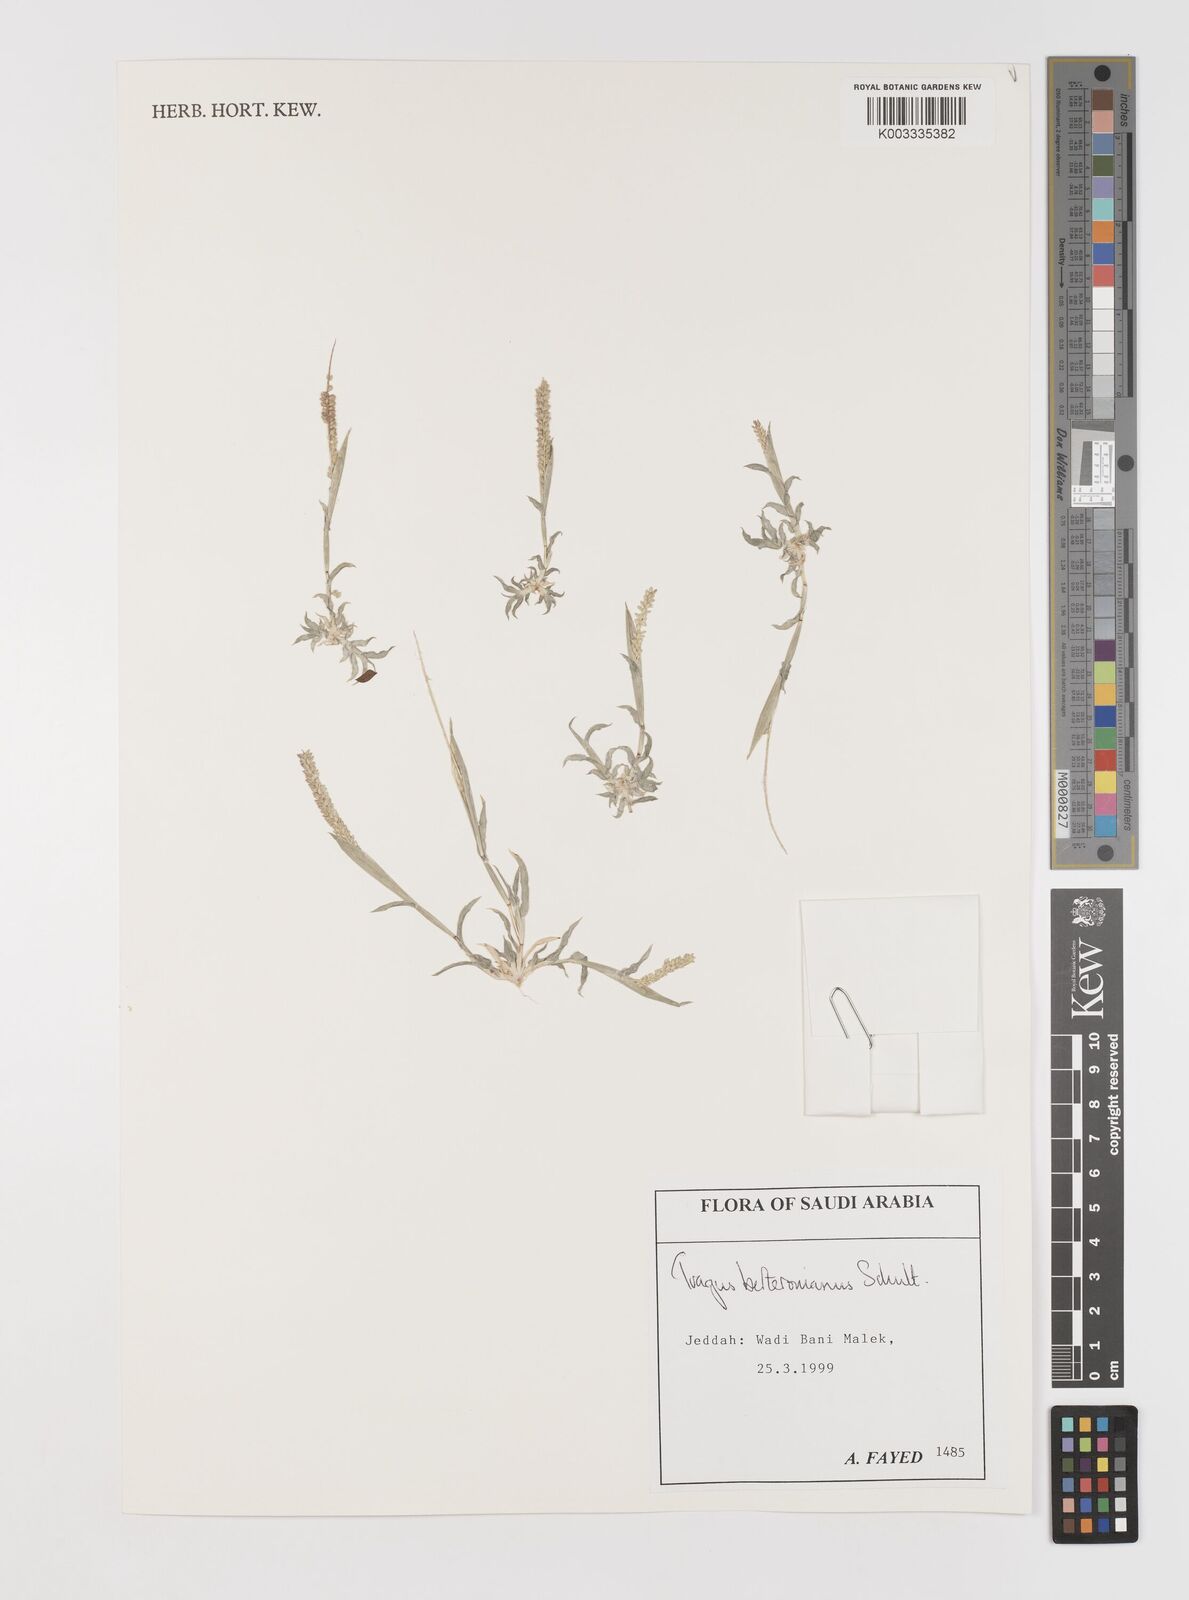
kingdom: Plantae
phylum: Tracheophyta
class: Liliopsida
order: Poales
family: Poaceae
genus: Tragus
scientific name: Tragus berteronianus
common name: African bur-grass
